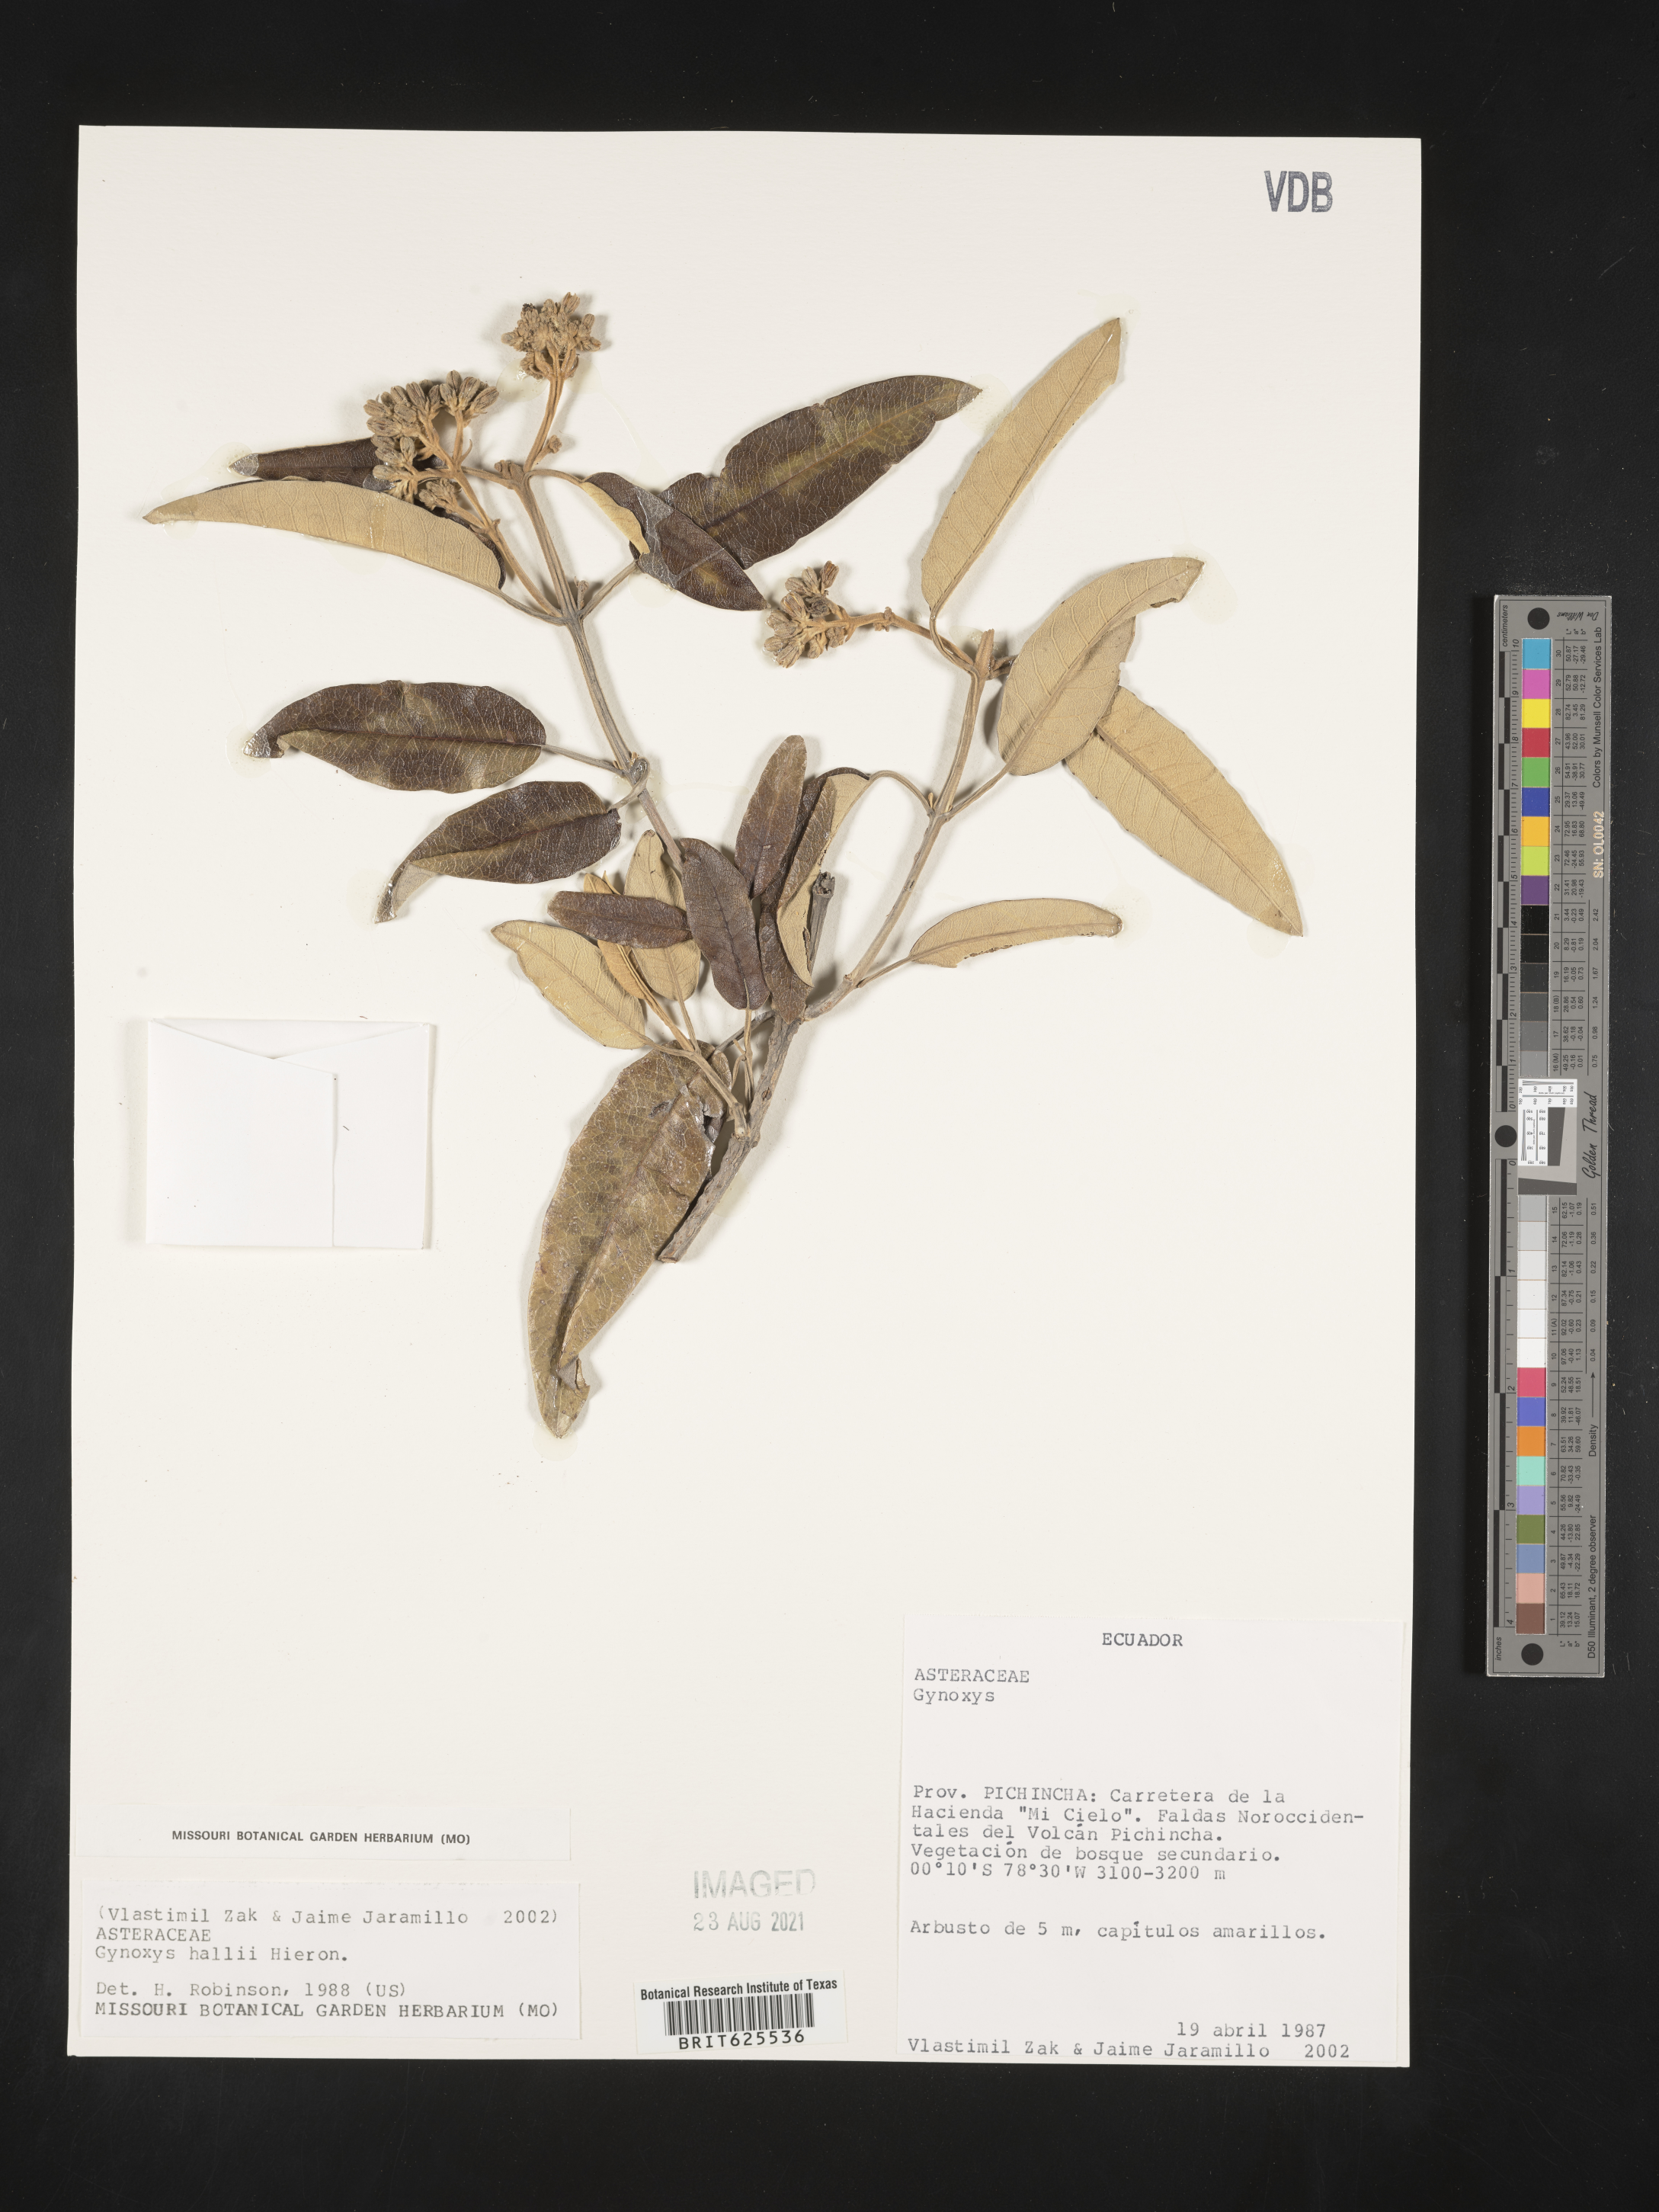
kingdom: Plantae
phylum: Tracheophyta
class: Magnoliopsida
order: Asterales
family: Asteraceae
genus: Gynoxys
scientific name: Gynoxys hallii
